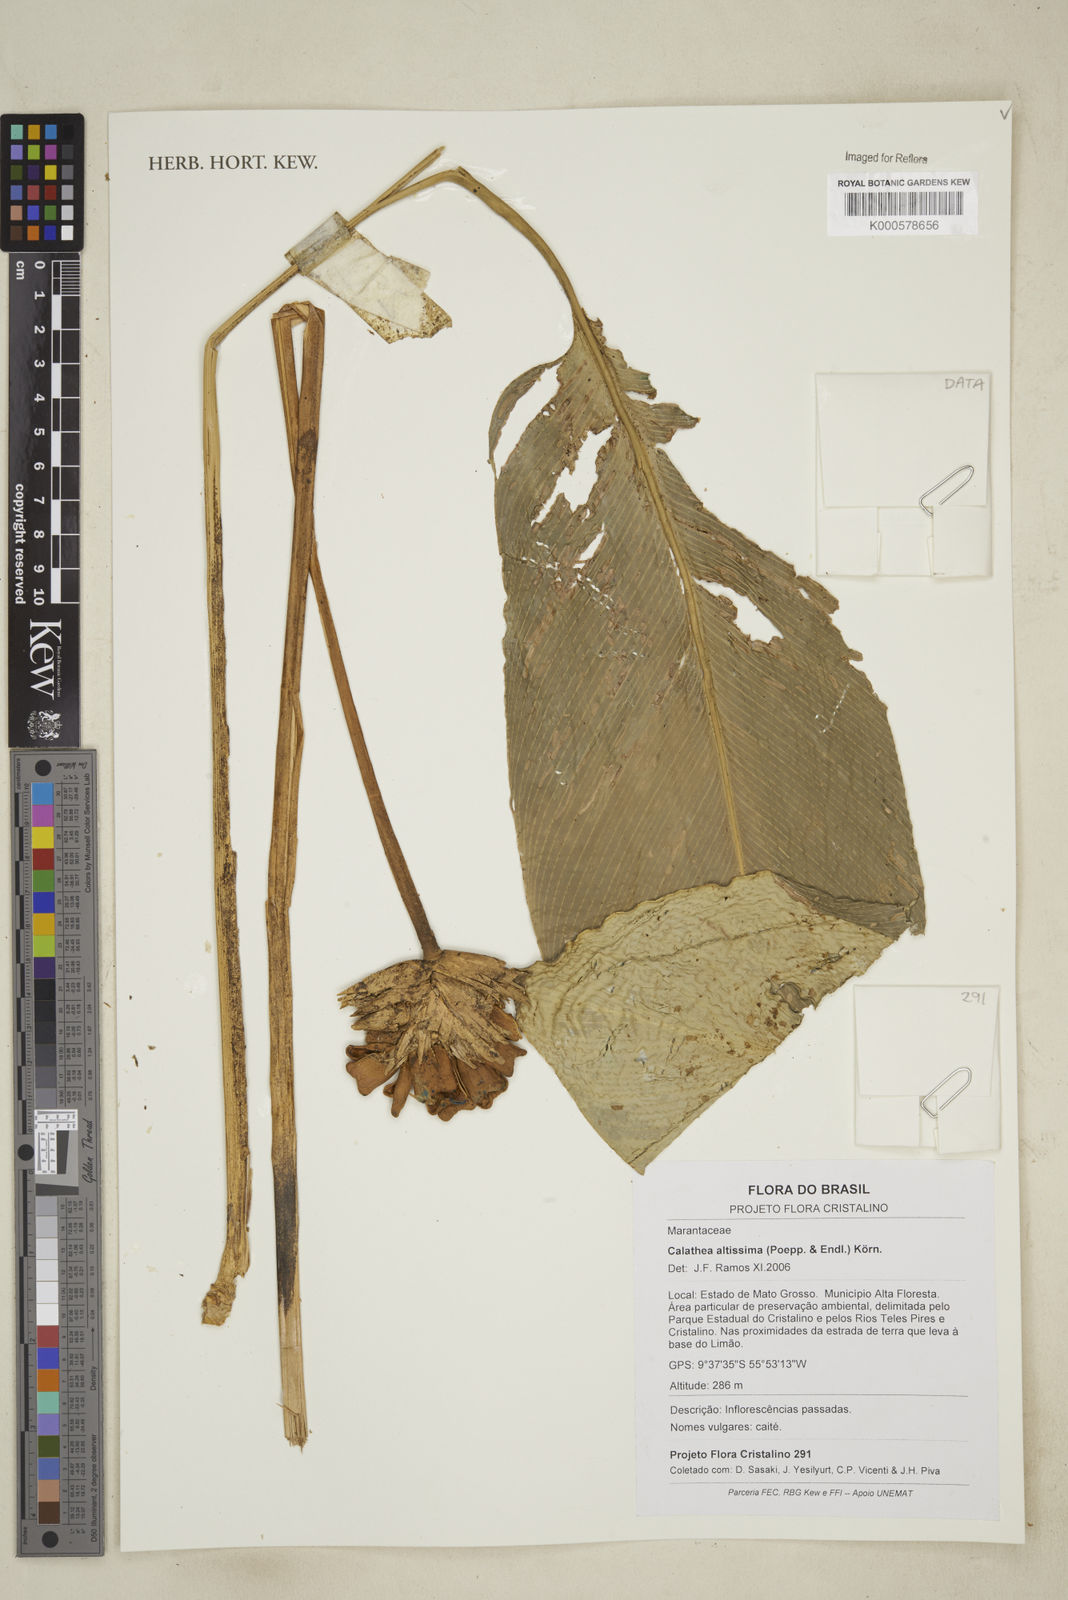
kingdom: Plantae
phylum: Tracheophyta
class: Liliopsida
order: Zingiberales
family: Marantaceae
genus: Calathea
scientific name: Calathea
